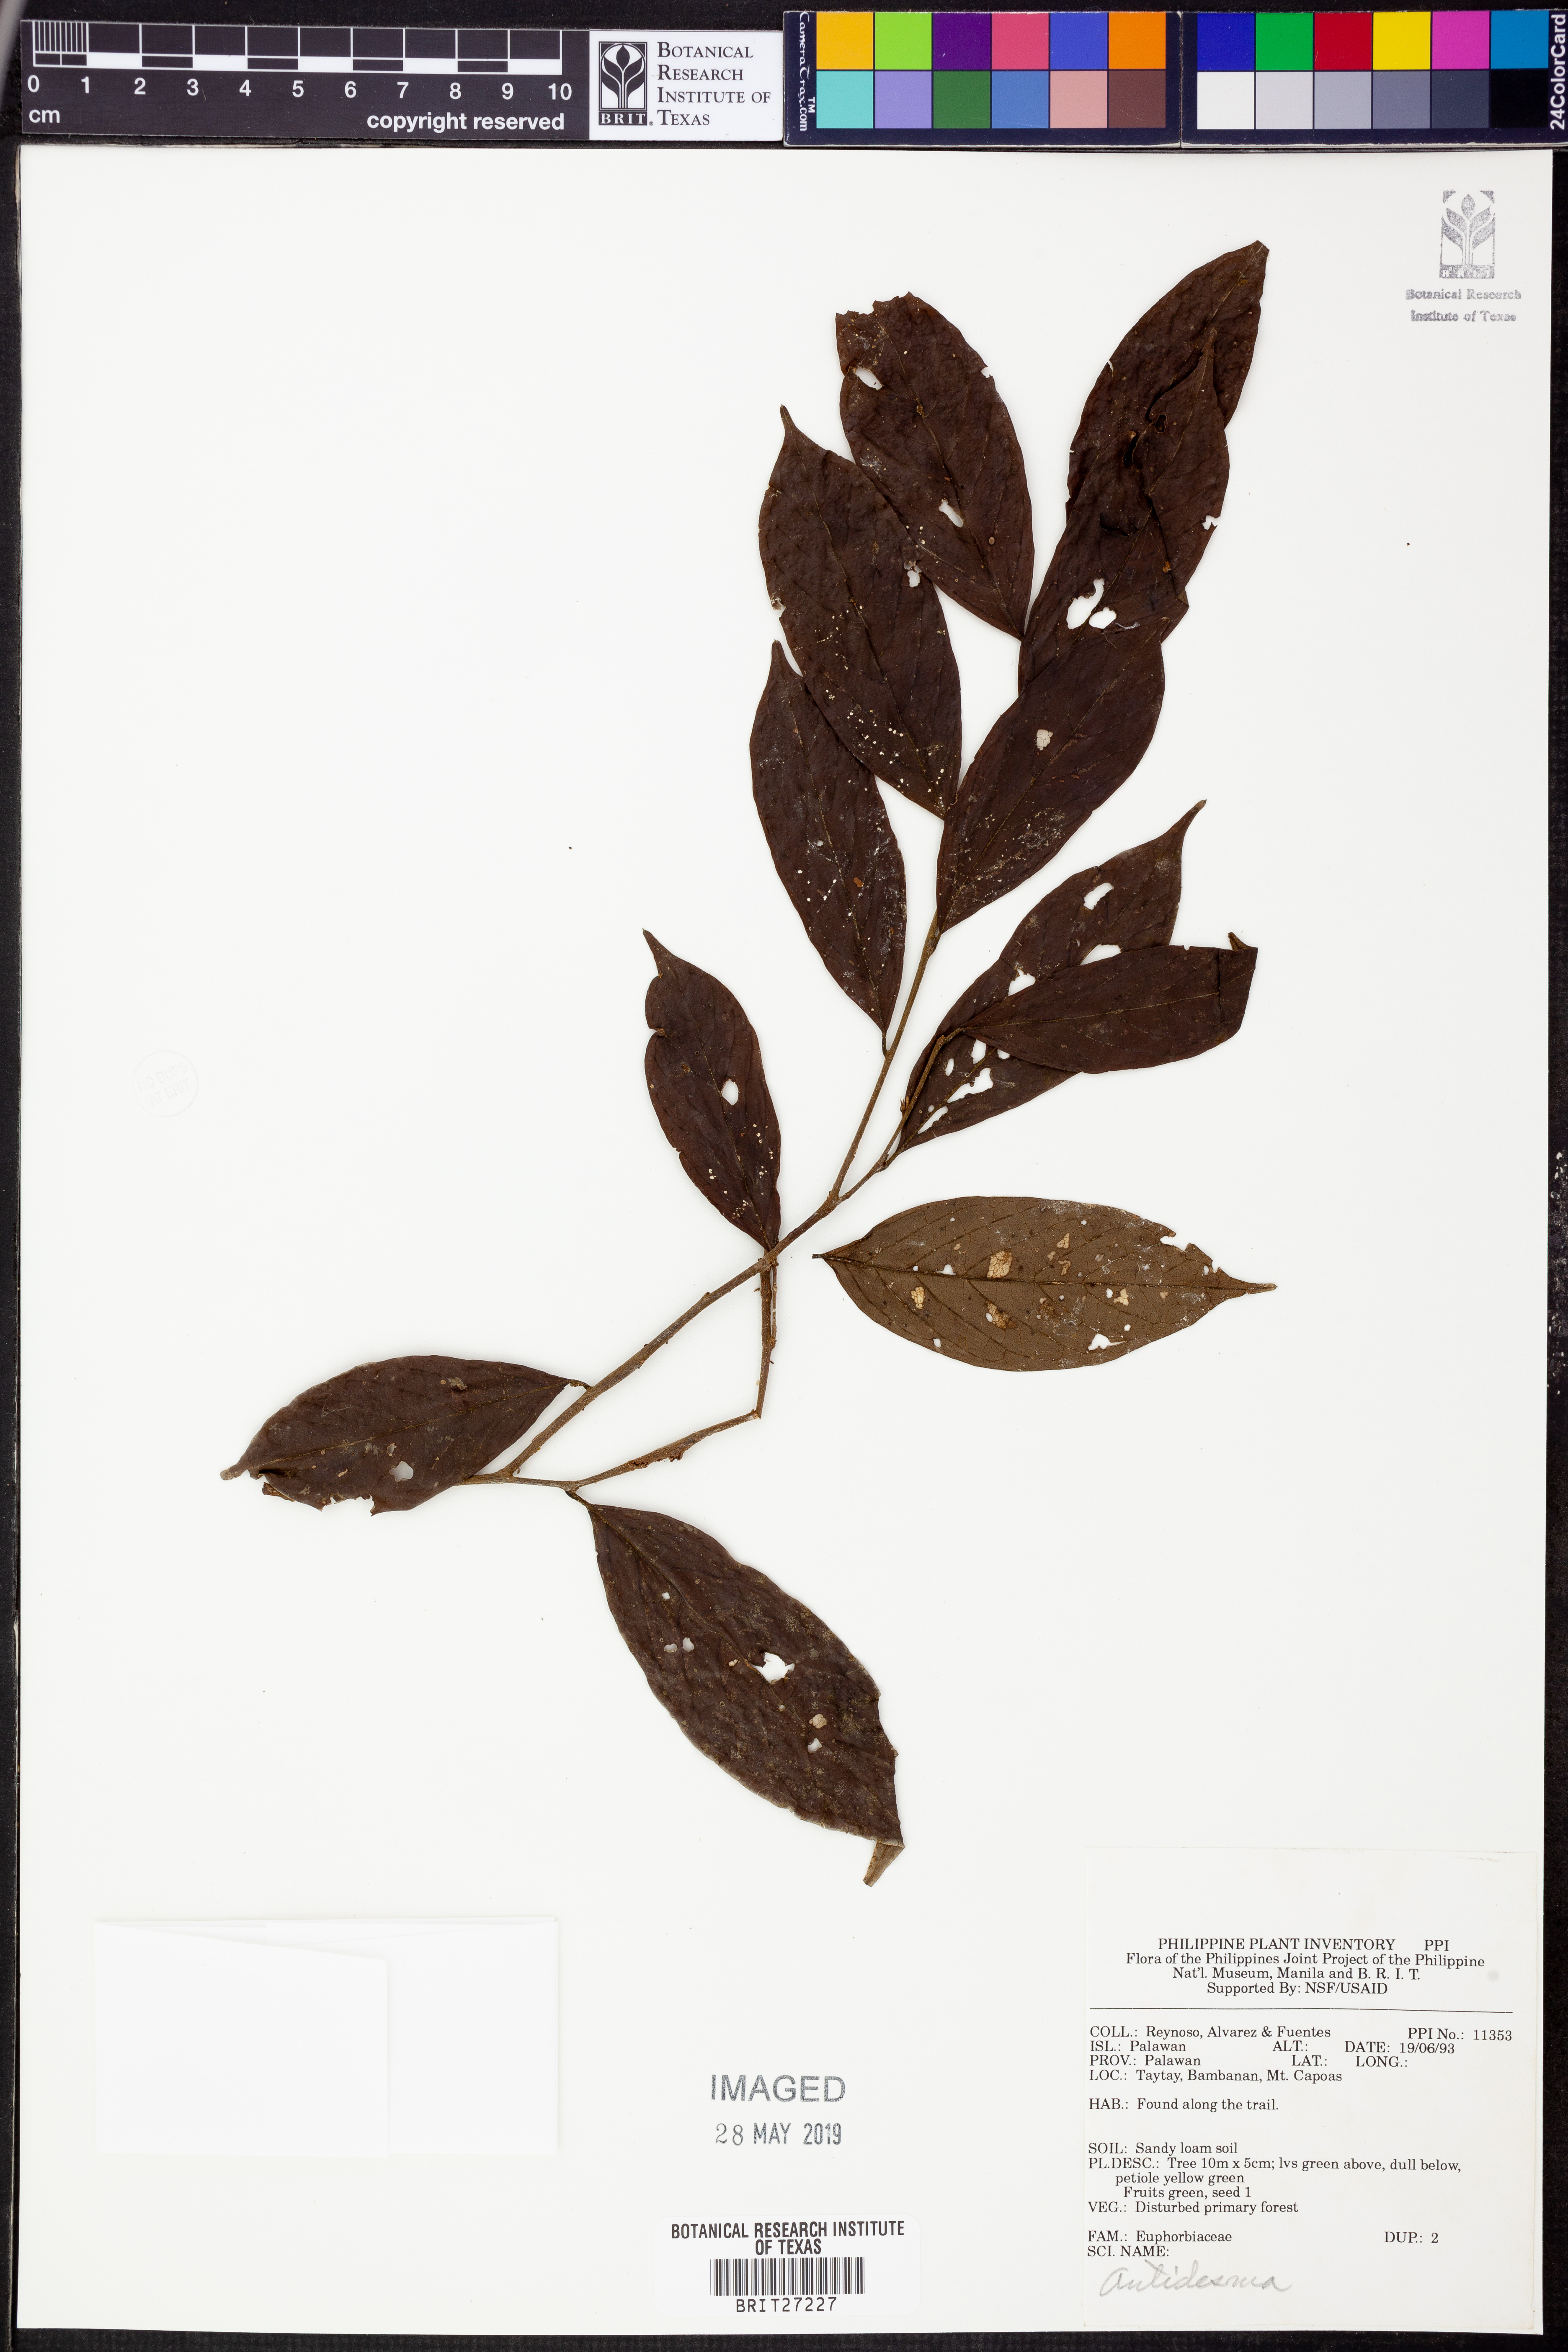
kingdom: Plantae
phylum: Tracheophyta
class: Magnoliopsida
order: Malpighiales
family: Phyllanthaceae
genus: Antidesma
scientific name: Antidesma
